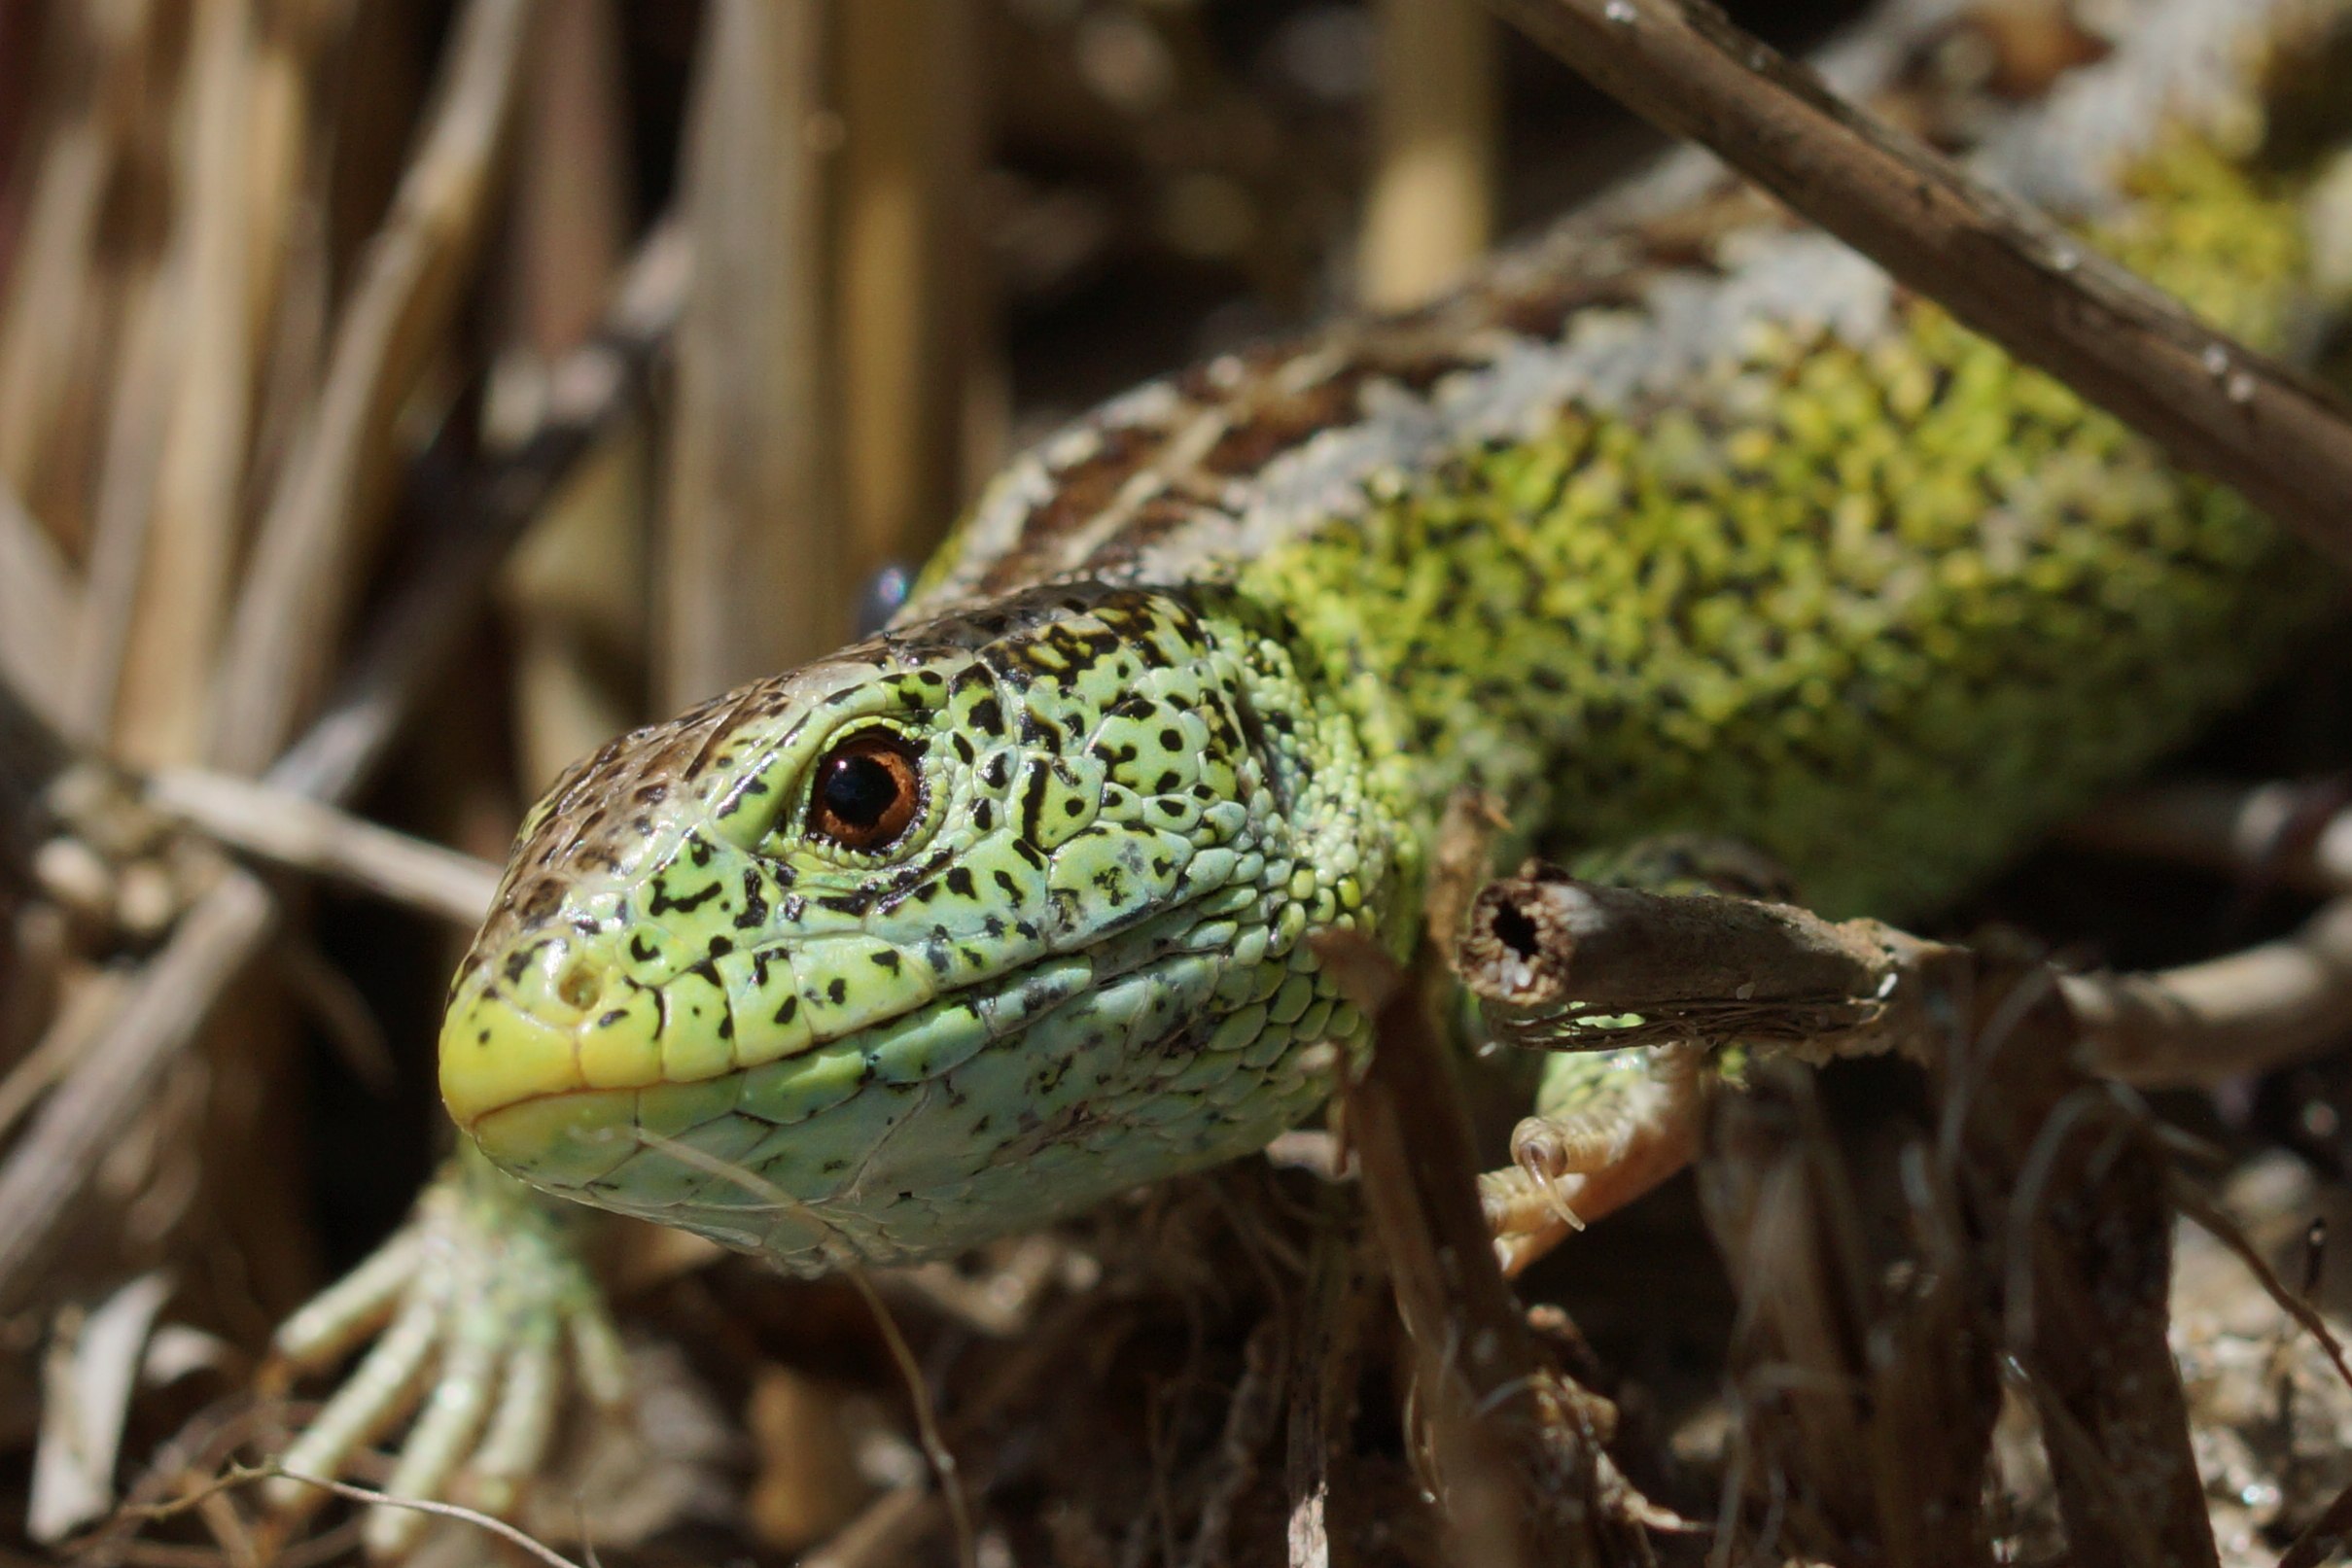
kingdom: Animalia
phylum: Chordata
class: Squamata
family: Lacertidae
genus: Lacerta
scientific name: Lacerta agilis
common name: Markfirben
